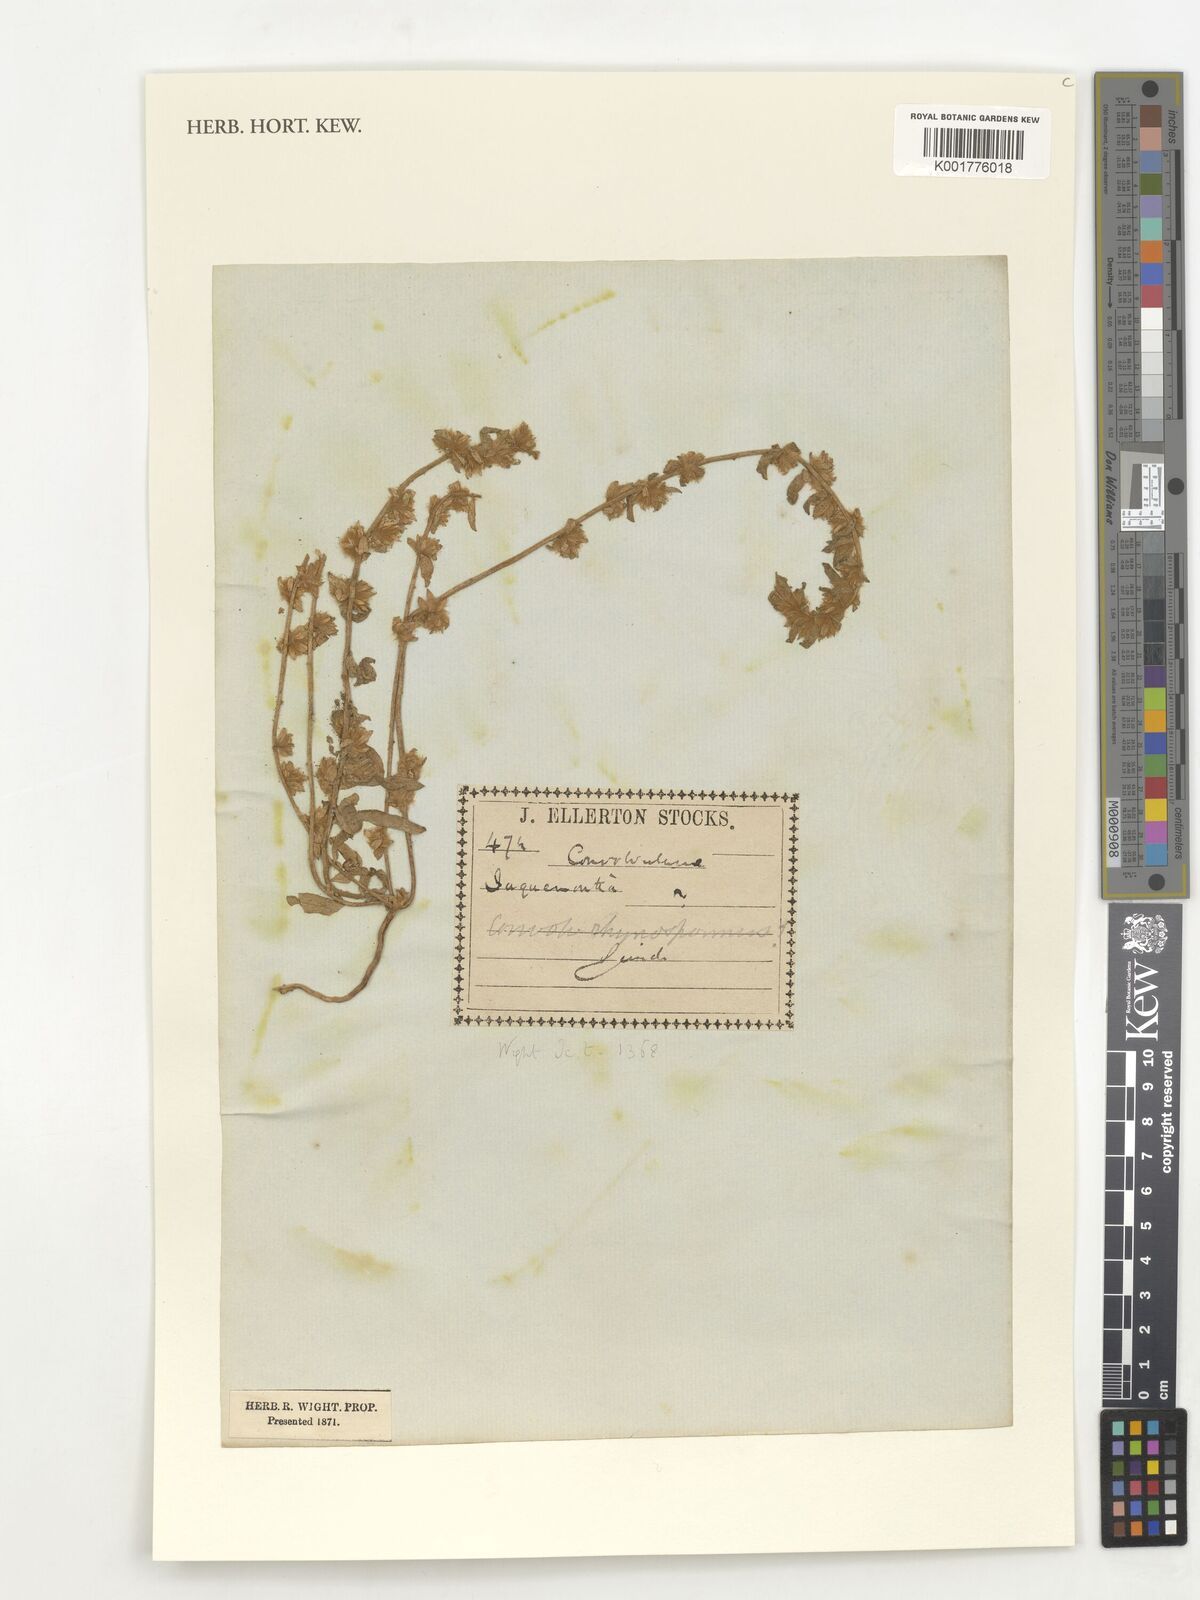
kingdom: Plantae
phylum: Tracheophyta
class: Magnoliopsida
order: Solanales
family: Convolvulaceae
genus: Convolvulus
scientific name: Convolvulus rhyniospermus
